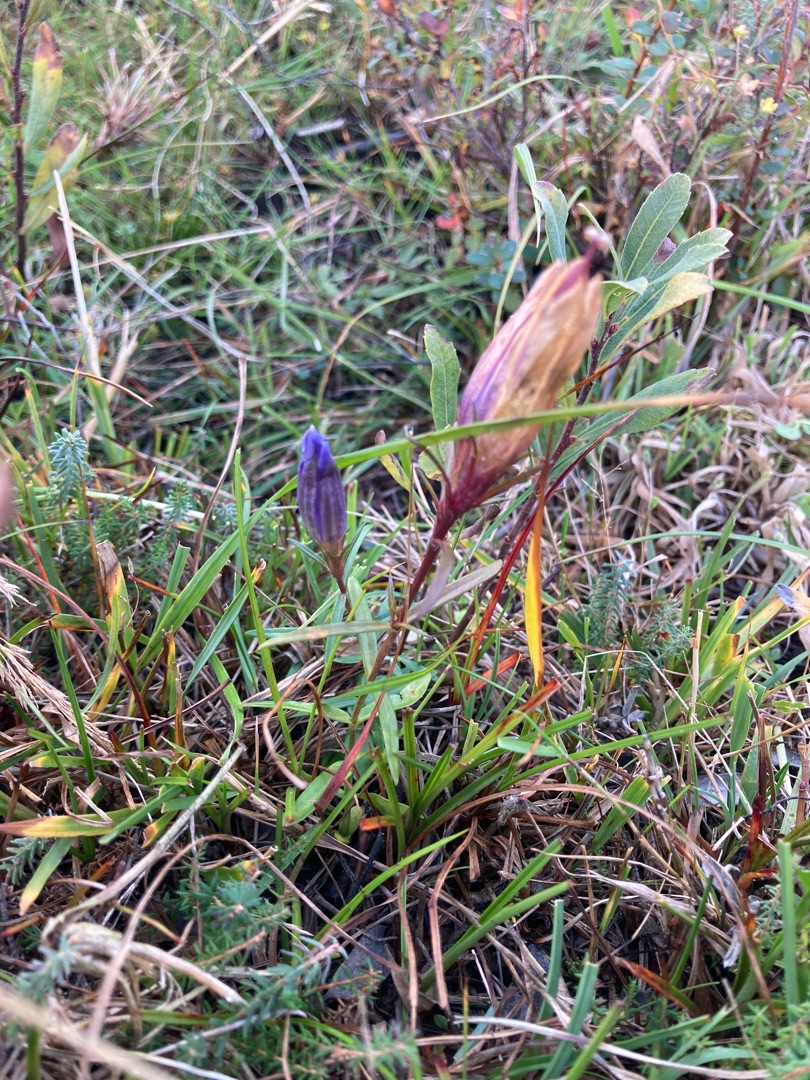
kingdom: Plantae
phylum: Tracheophyta
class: Magnoliopsida
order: Gentianales
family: Gentianaceae
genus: Gentiana
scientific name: Gentiana pneumonanthe
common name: Klokke-ensian
